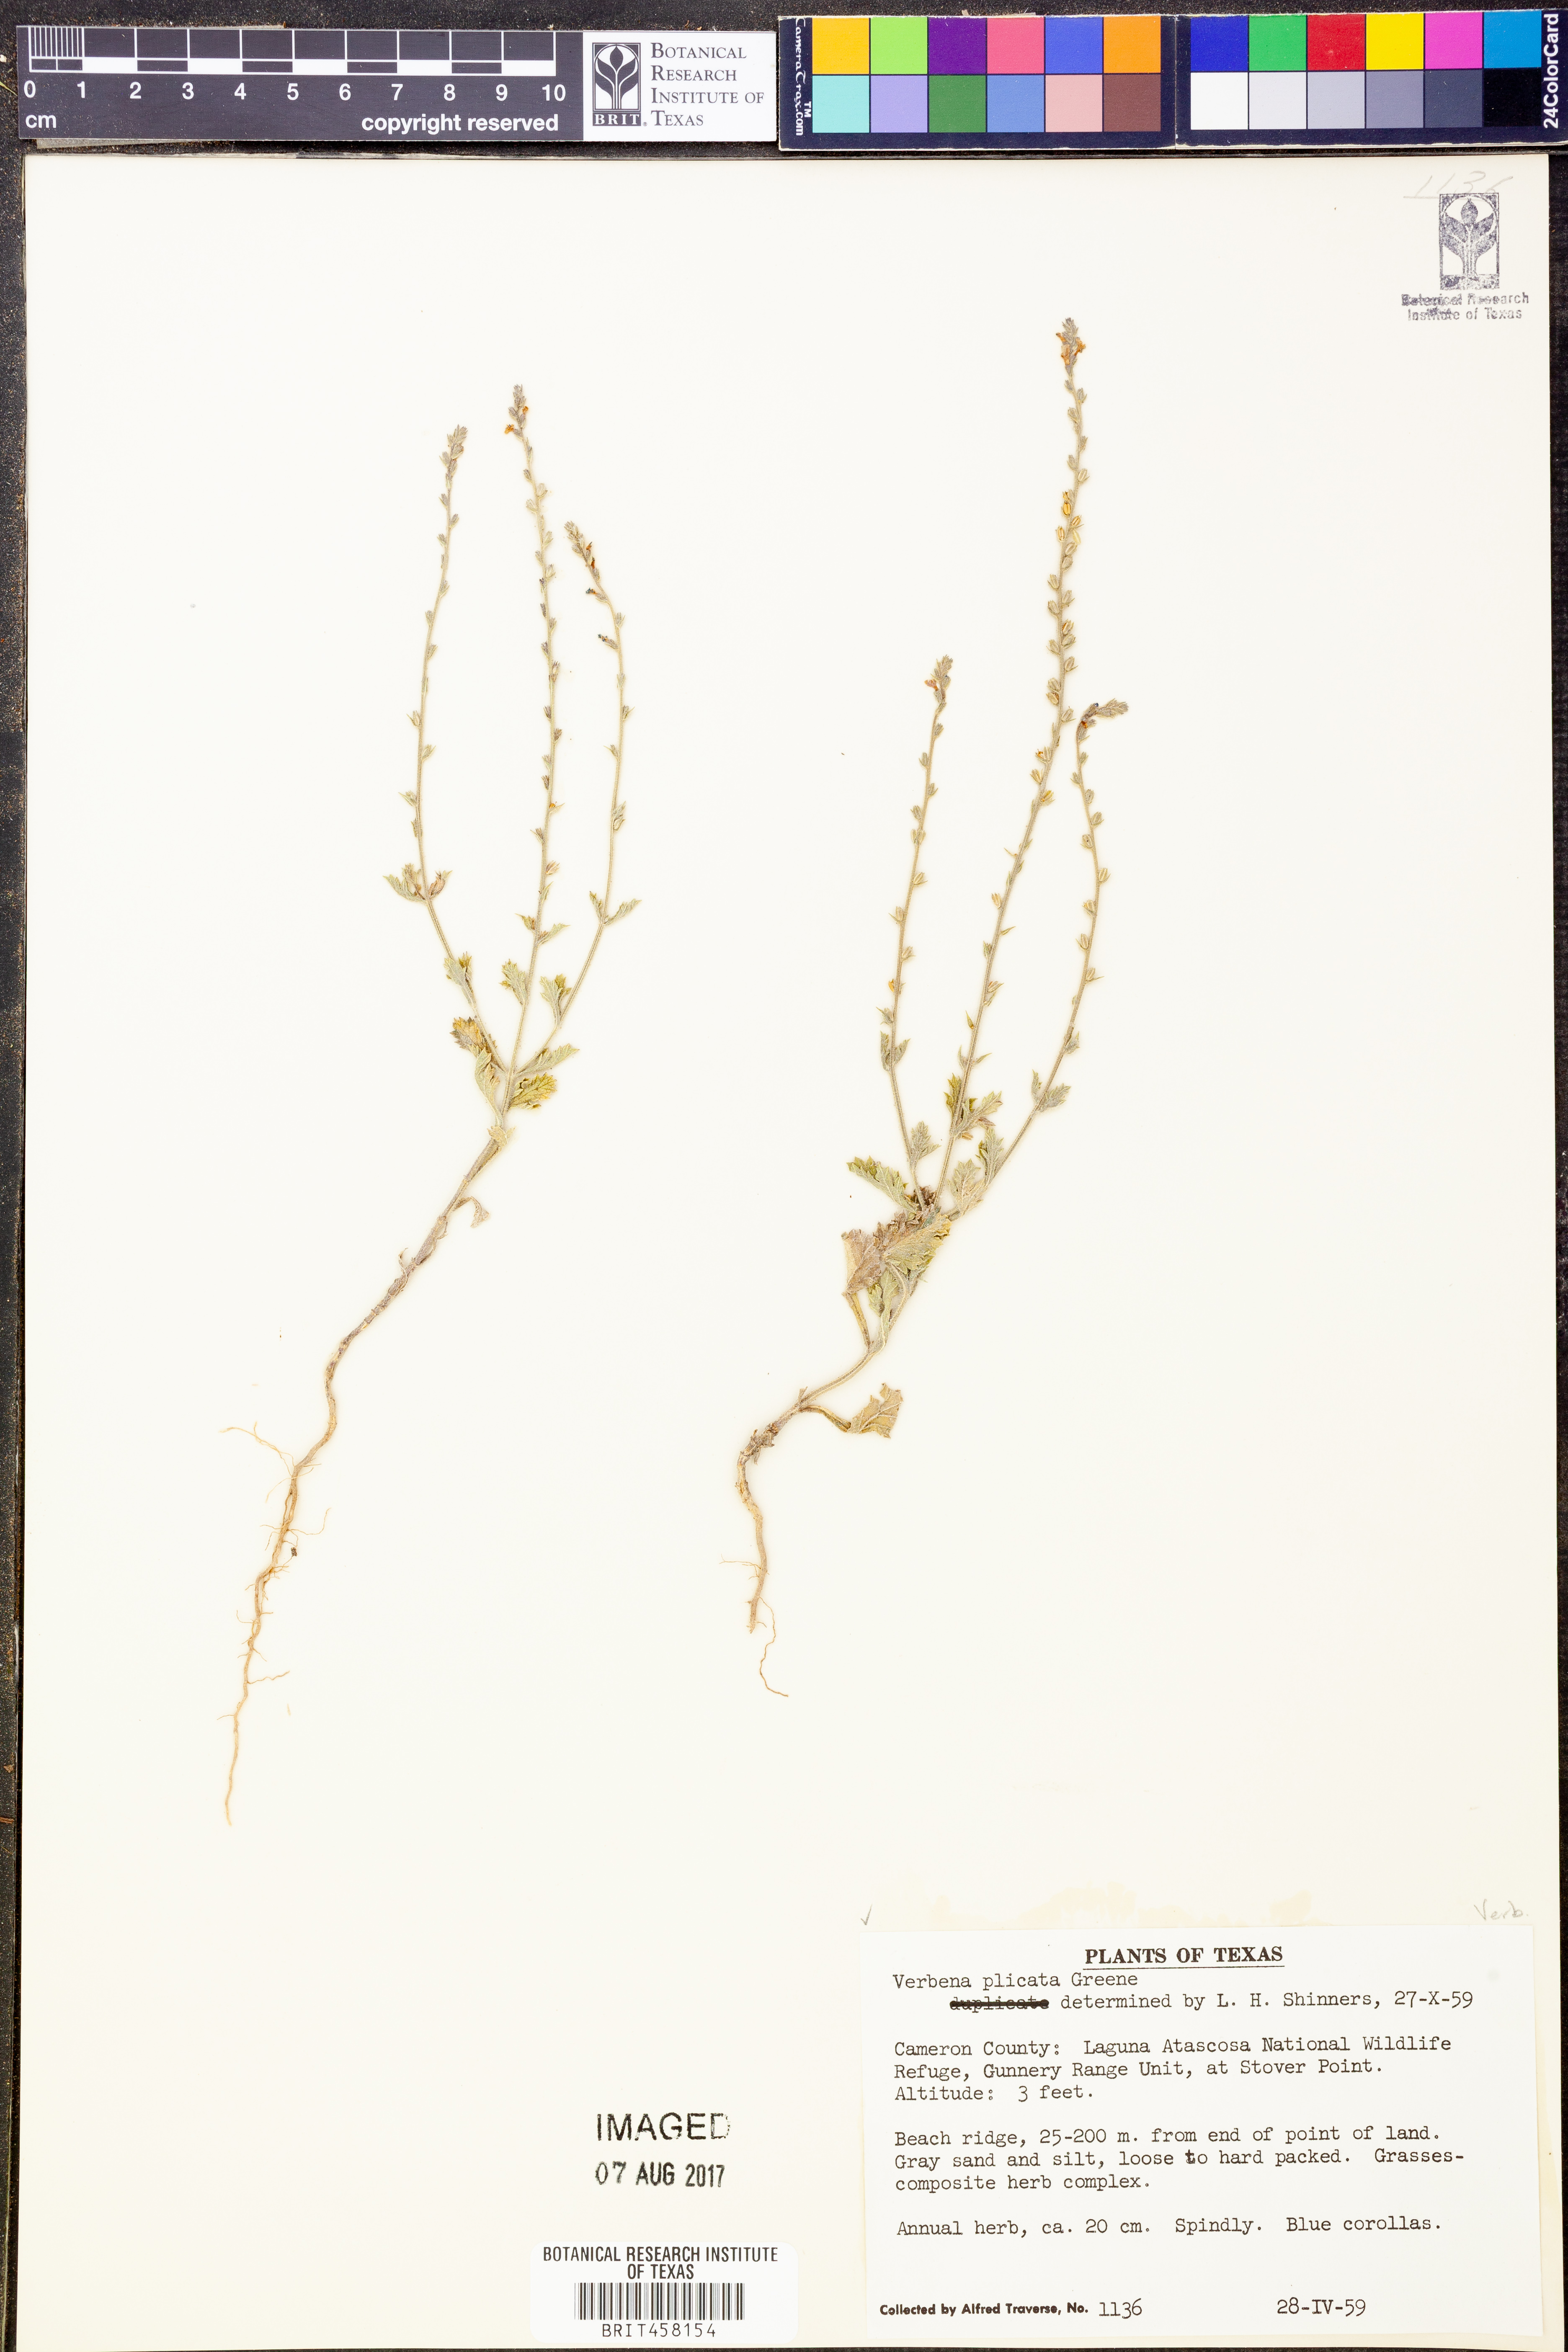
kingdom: Plantae
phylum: Tracheophyta
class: Magnoliopsida
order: Lamiales
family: Verbenaceae
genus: Verbena
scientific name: Verbena plicata
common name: Fan-leaf vervain
